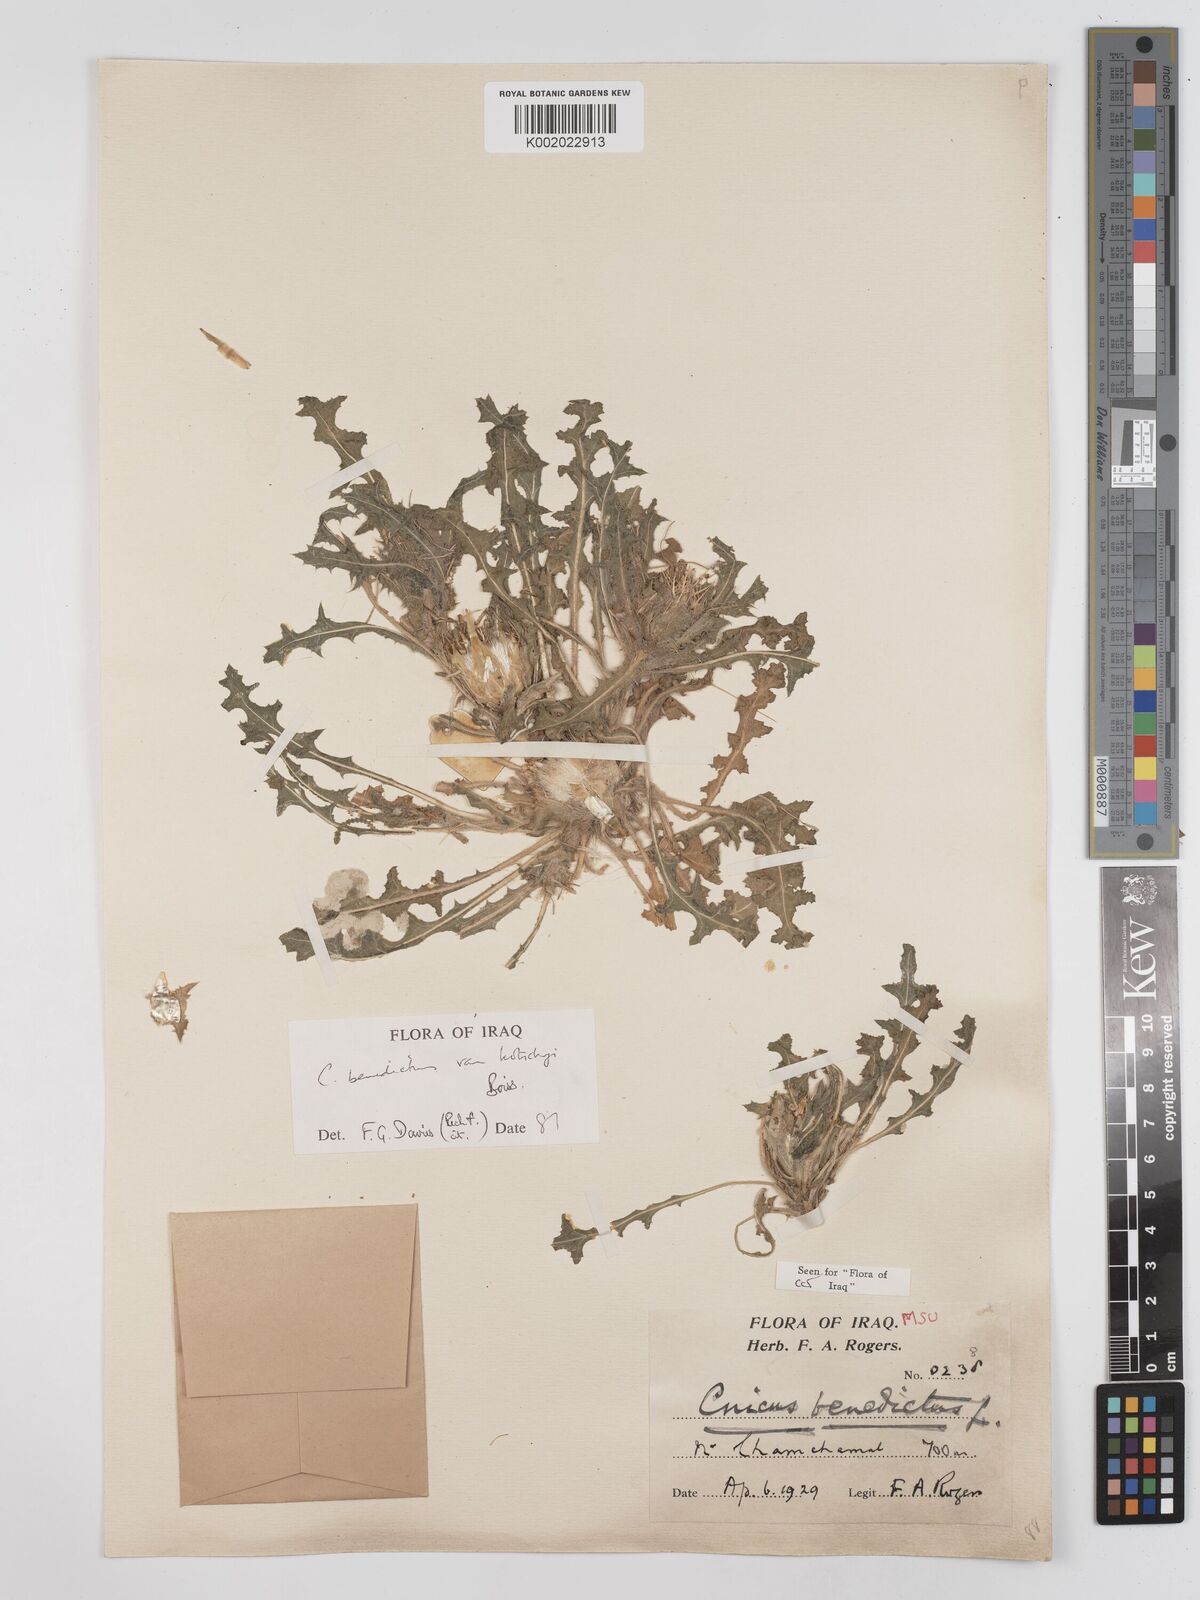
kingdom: Plantae
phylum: Tracheophyta
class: Magnoliopsida
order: Asterales
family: Asteraceae
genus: Centaurea
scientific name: Centaurea benedicta
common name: Blessed thistle
